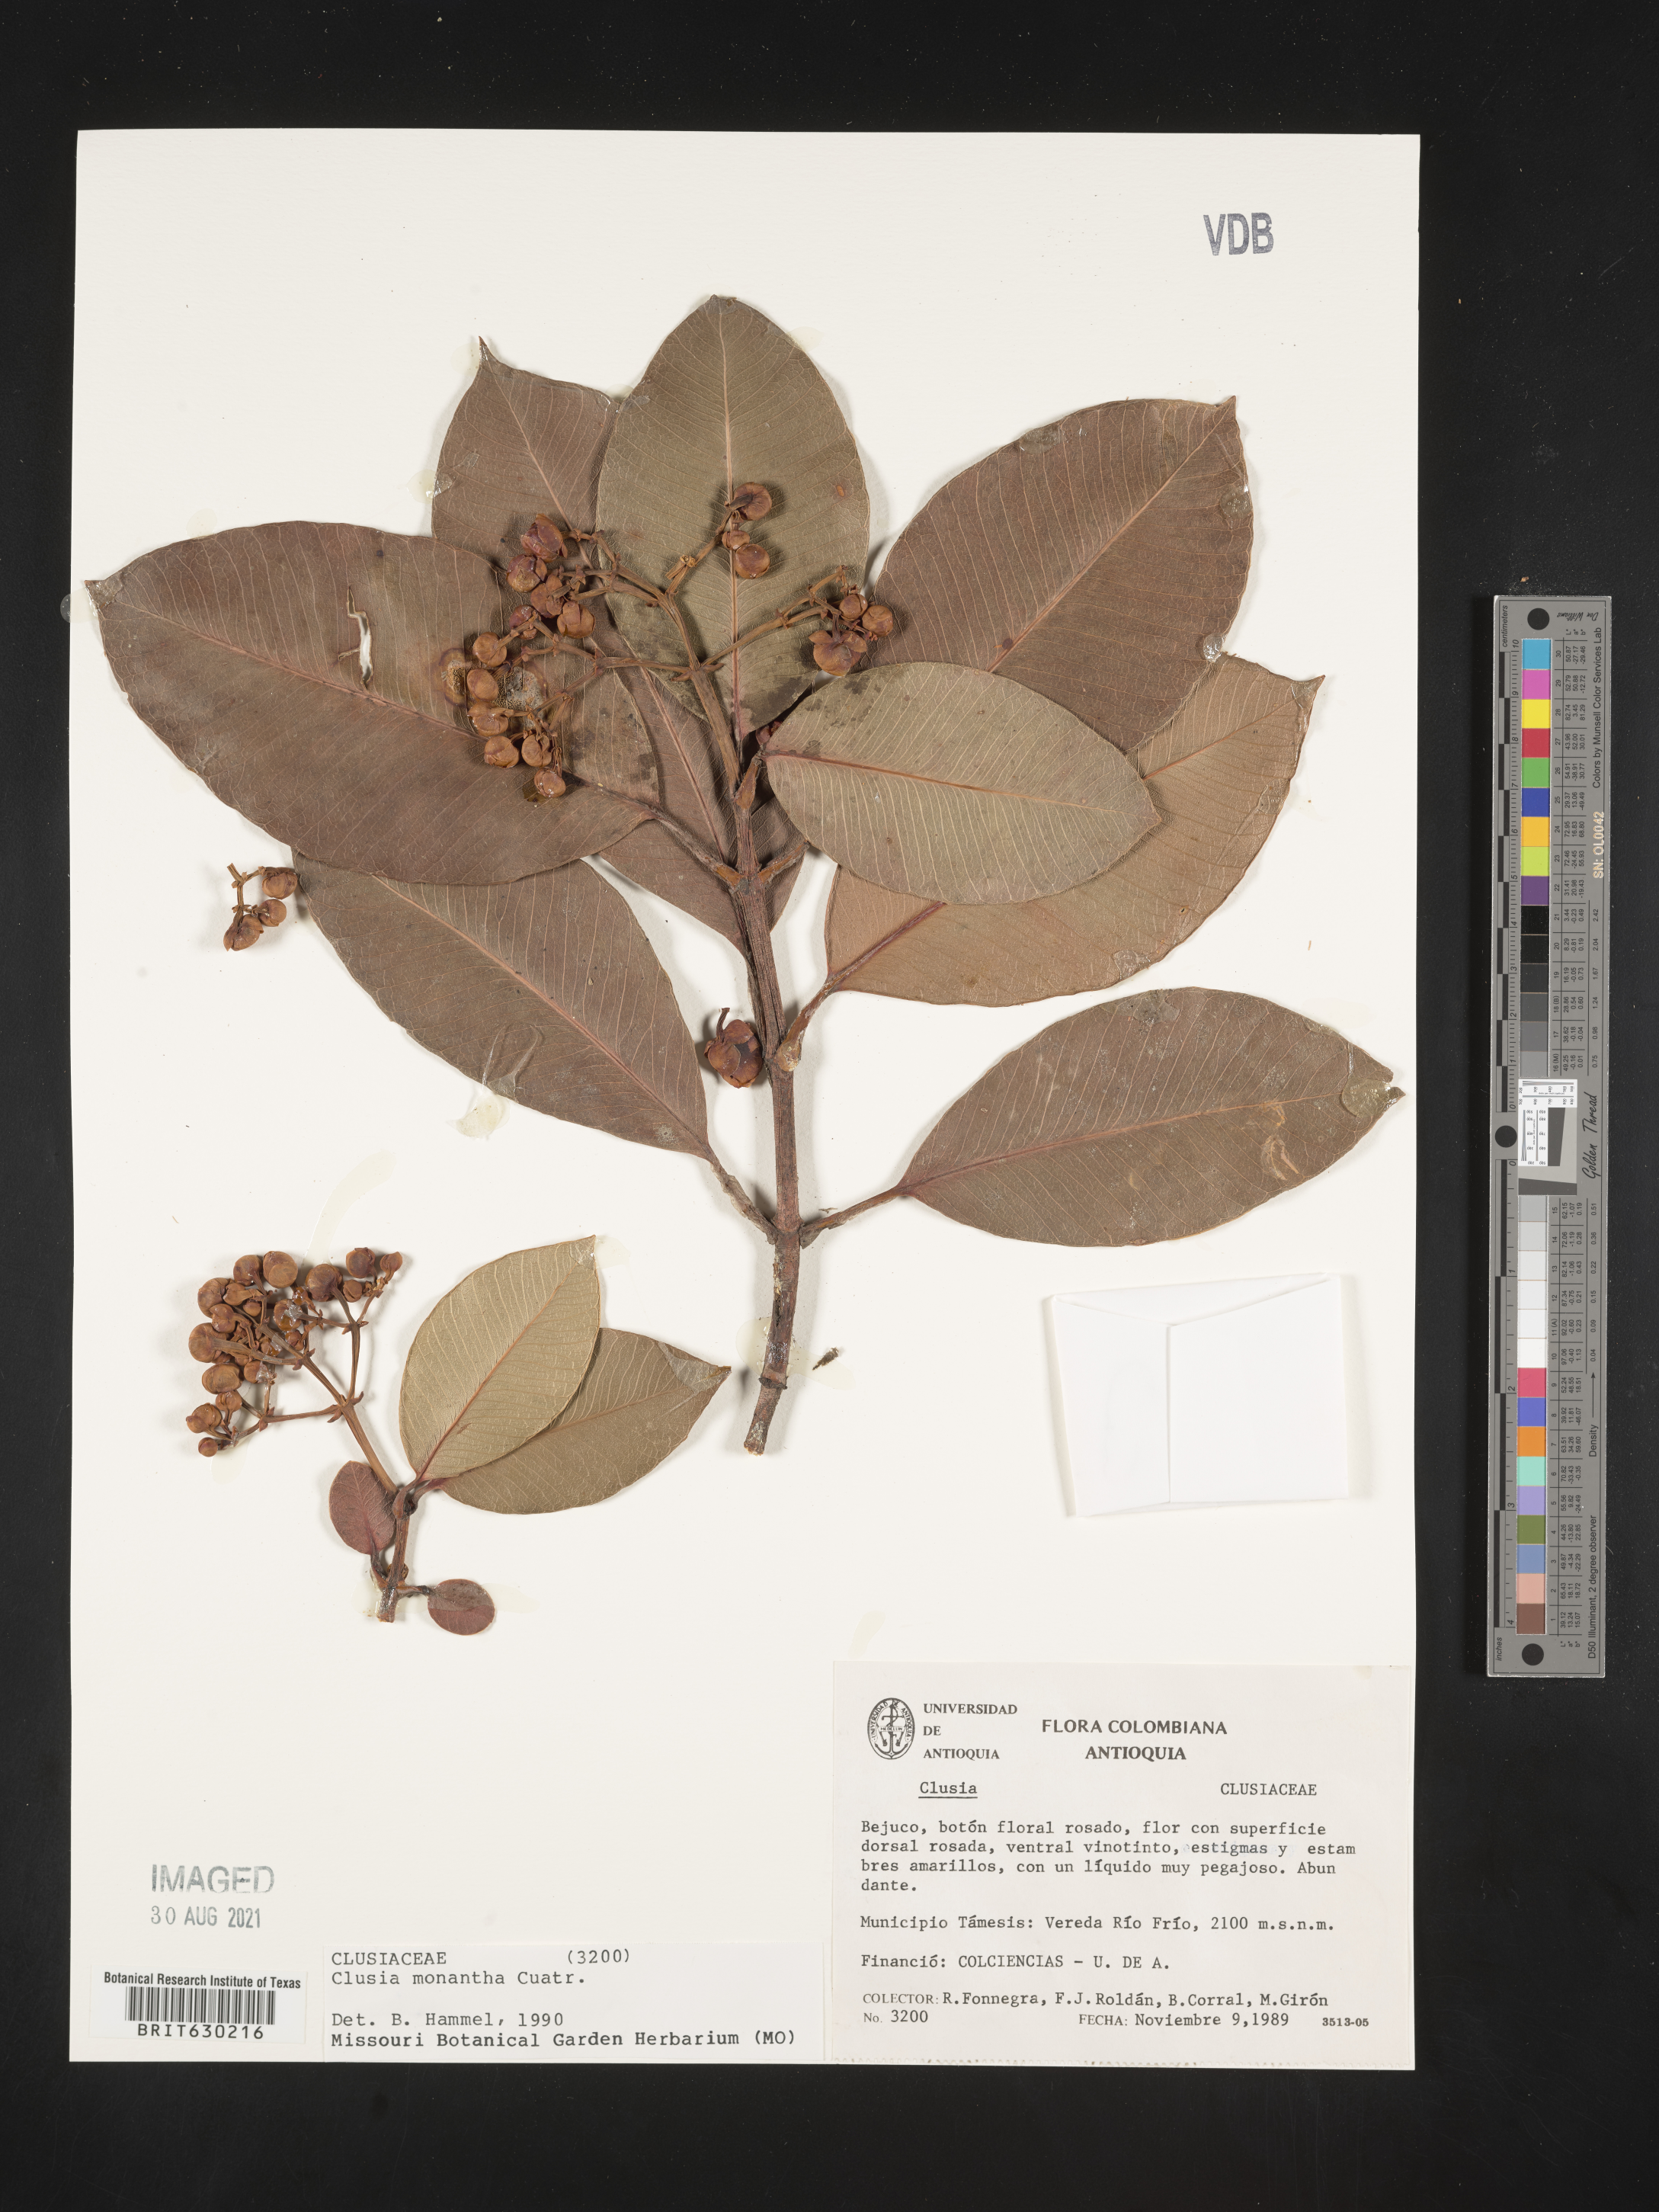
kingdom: Plantae
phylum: Tracheophyta
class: Magnoliopsida
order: Malpighiales
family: Clusiaceae
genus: Clusia
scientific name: Clusia monantha
